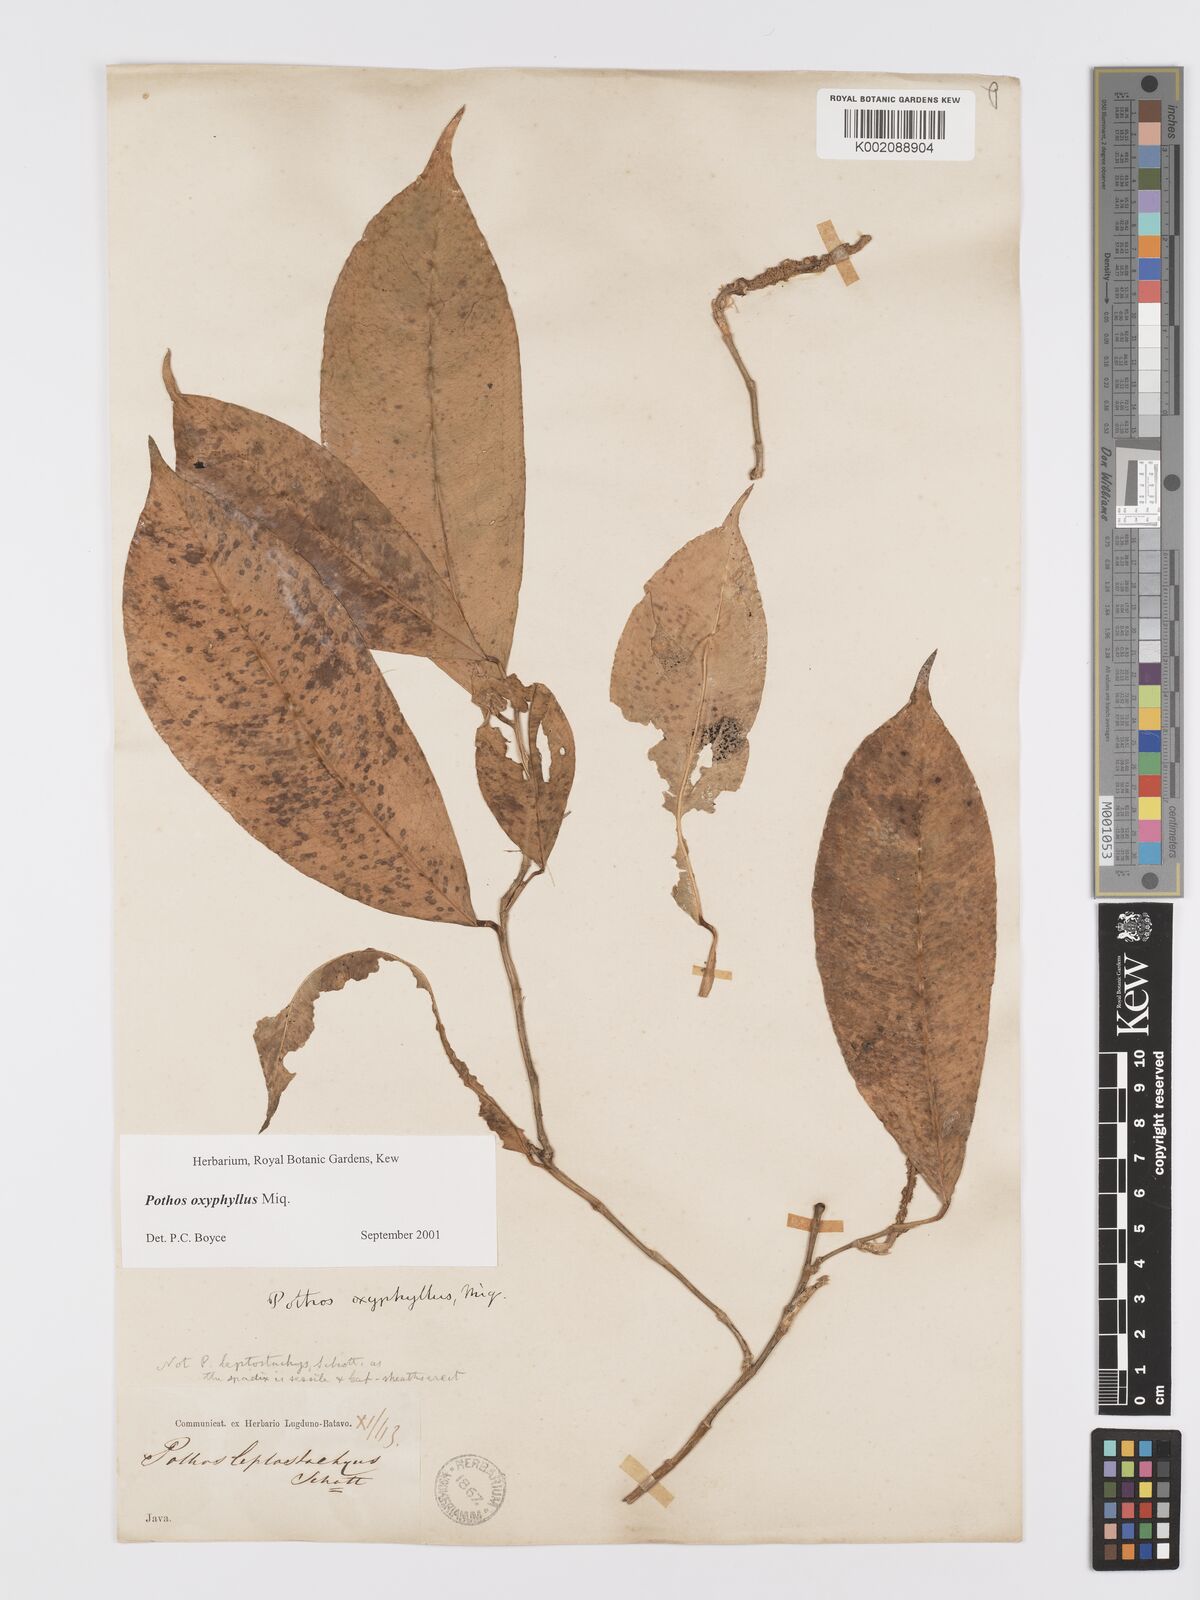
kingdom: Plantae
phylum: Tracheophyta
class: Liliopsida
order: Alismatales
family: Araceae
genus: Pothos
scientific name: Pothos oxyphyllus
